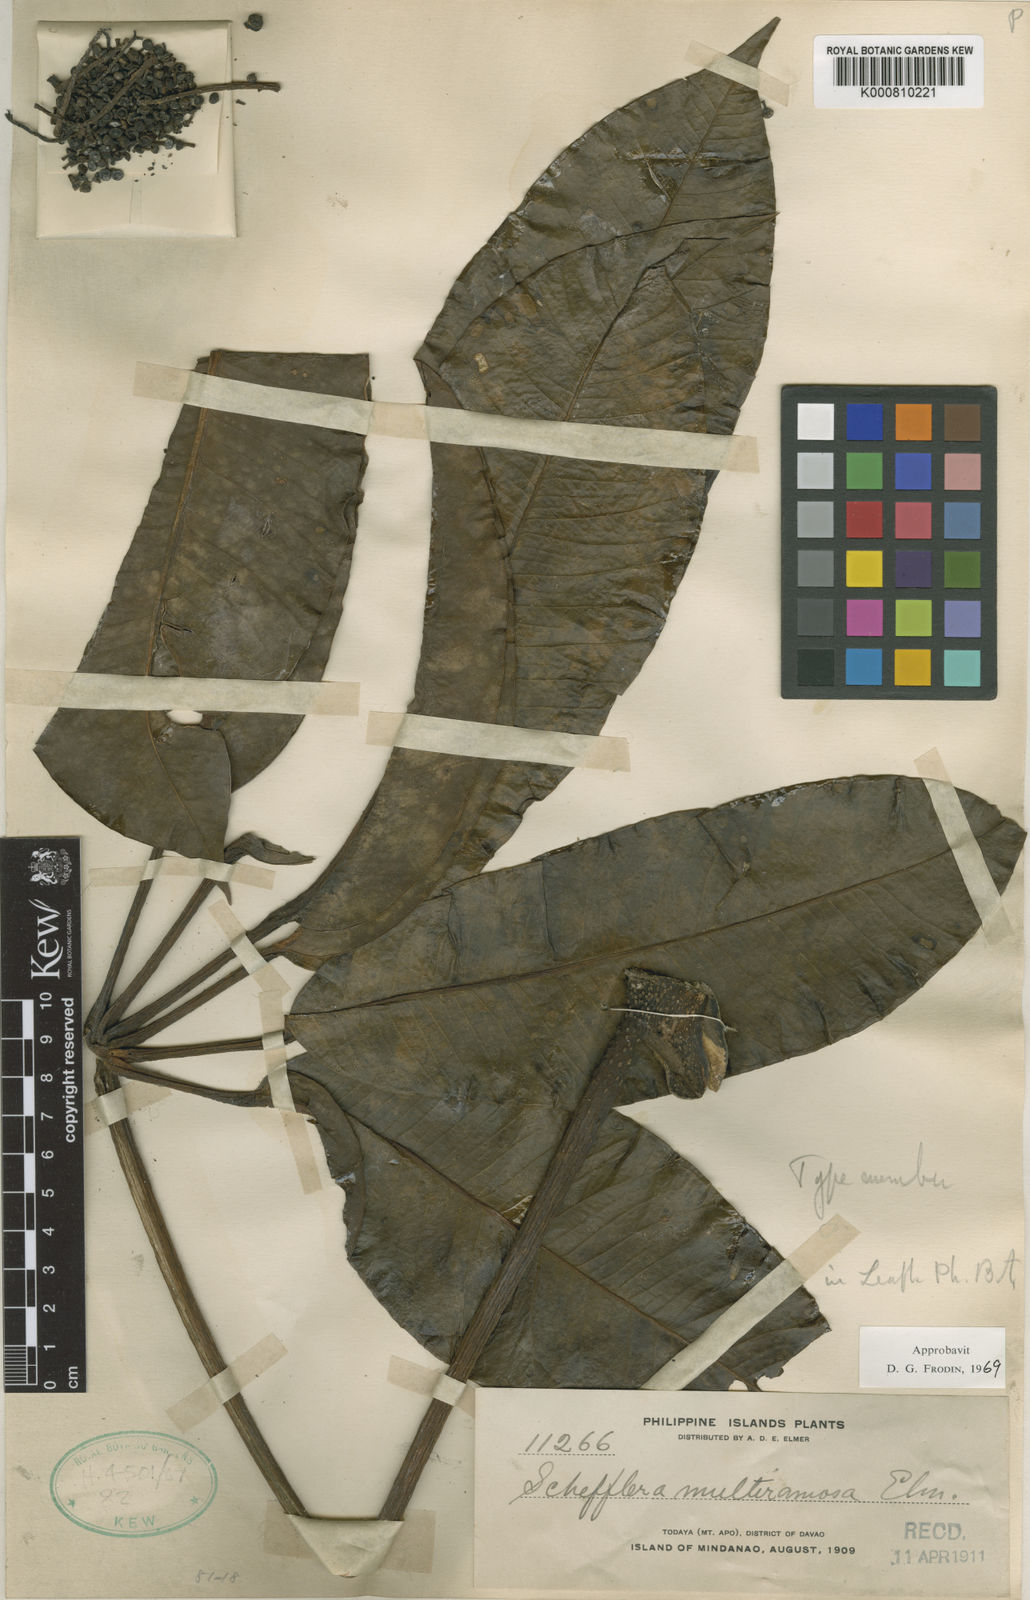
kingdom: Plantae
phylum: Tracheophyta
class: Magnoliopsida
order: Apiales
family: Araliaceae
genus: Heptapleurum
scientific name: Heptapleurum multiramosum
